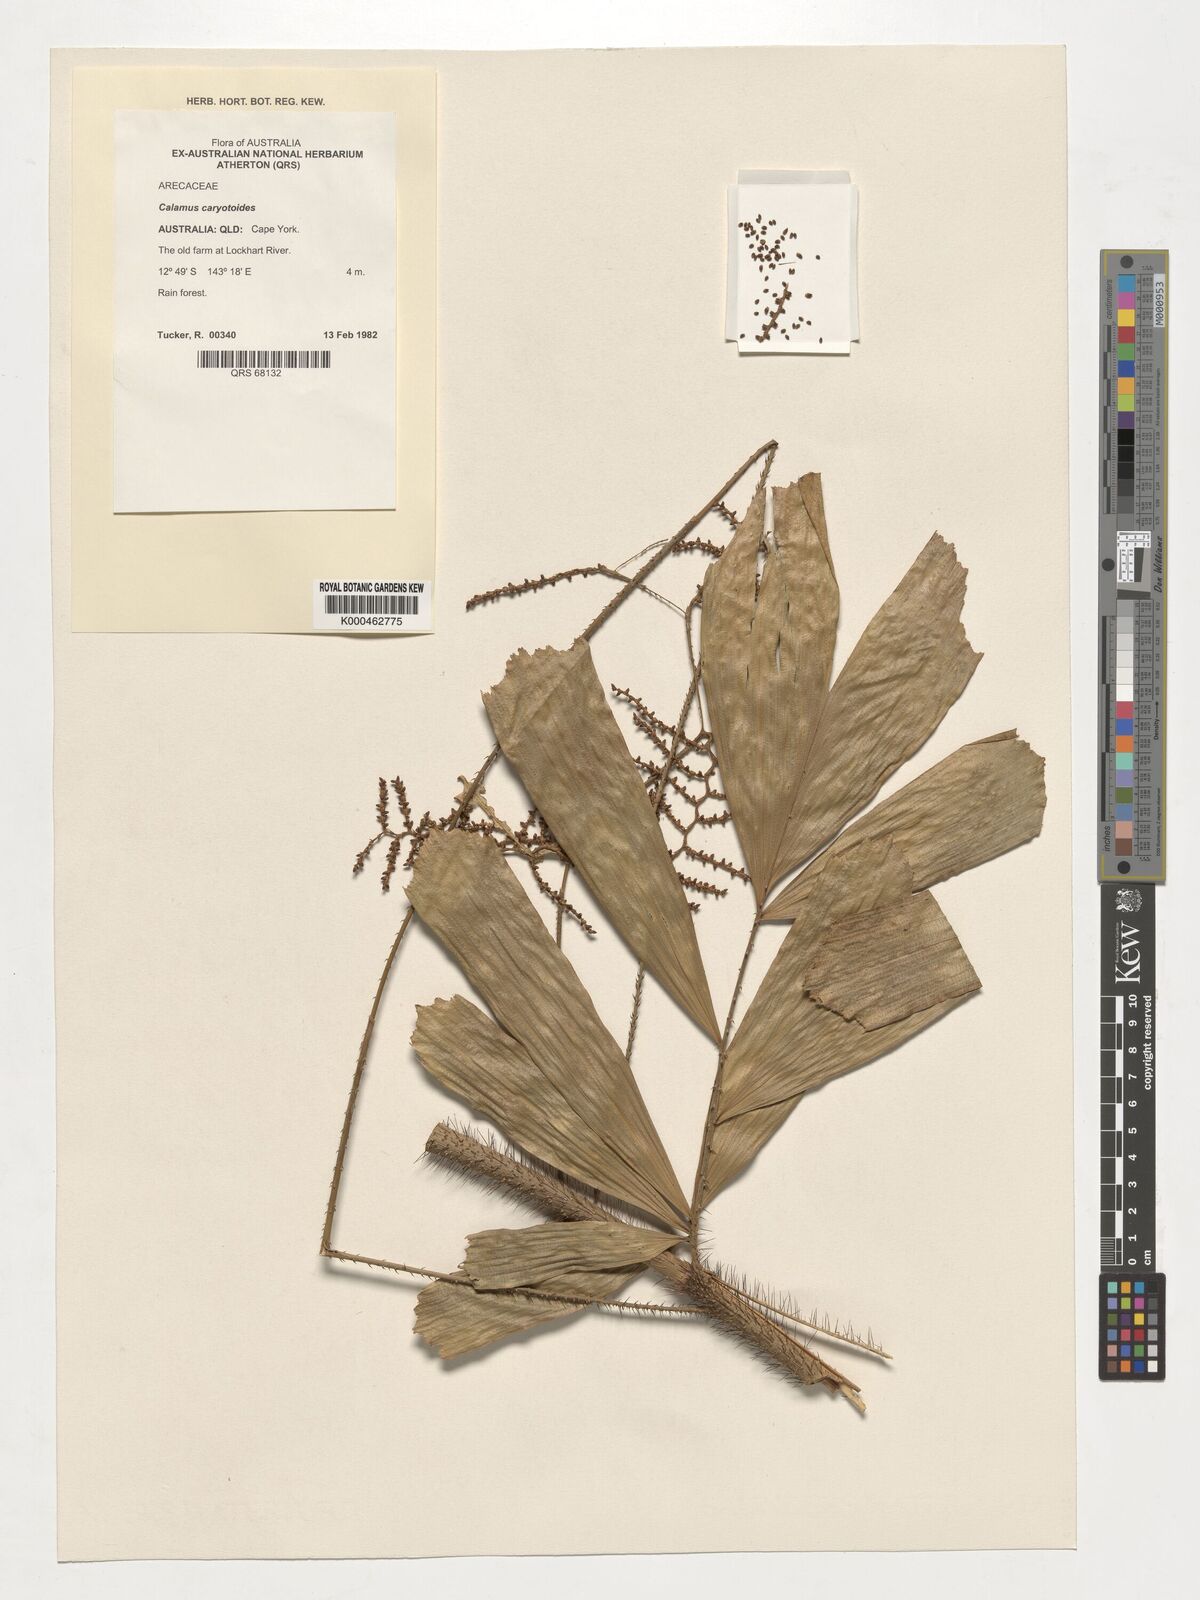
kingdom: Plantae
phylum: Tracheophyta
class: Liliopsida
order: Arecales
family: Arecaceae
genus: Calamus
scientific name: Calamus caryotoides
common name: Fishtail lawyer cane
